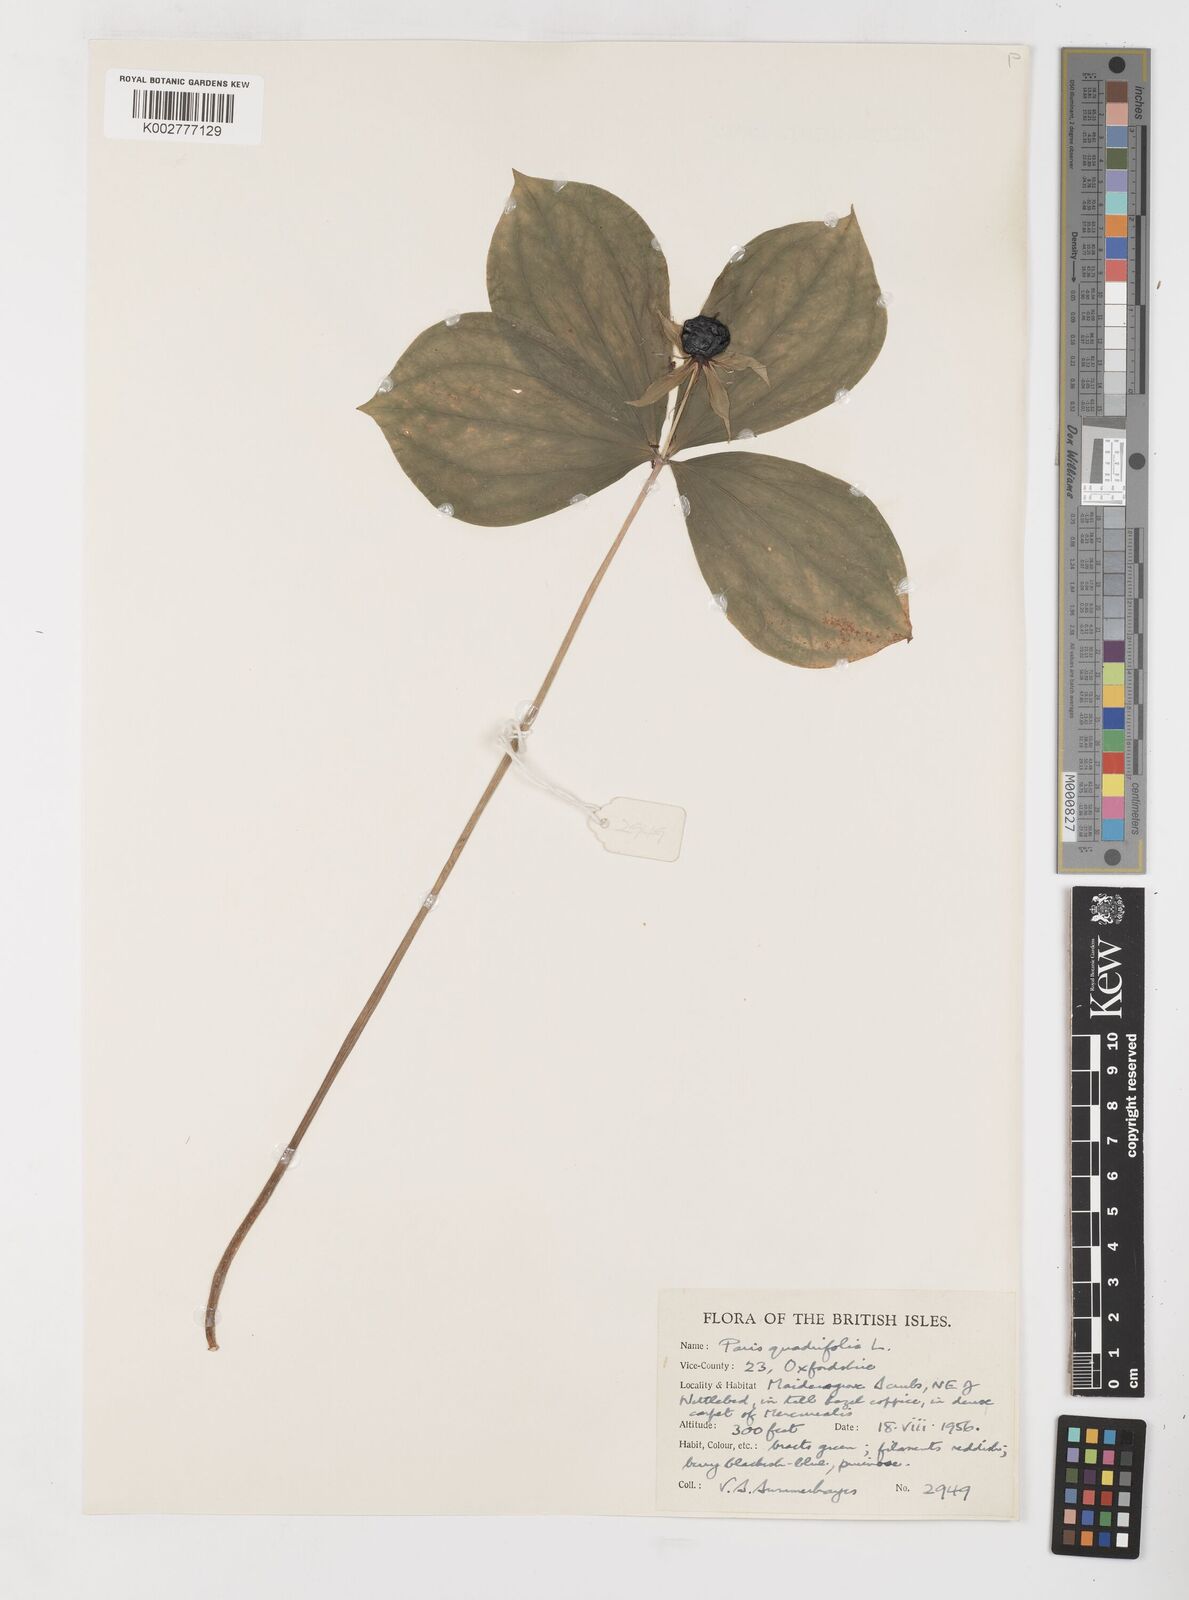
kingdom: Plantae
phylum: Tracheophyta
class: Liliopsida
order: Liliales
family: Melanthiaceae
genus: Paris
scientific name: Paris quadrifolia
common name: Herb-paris
